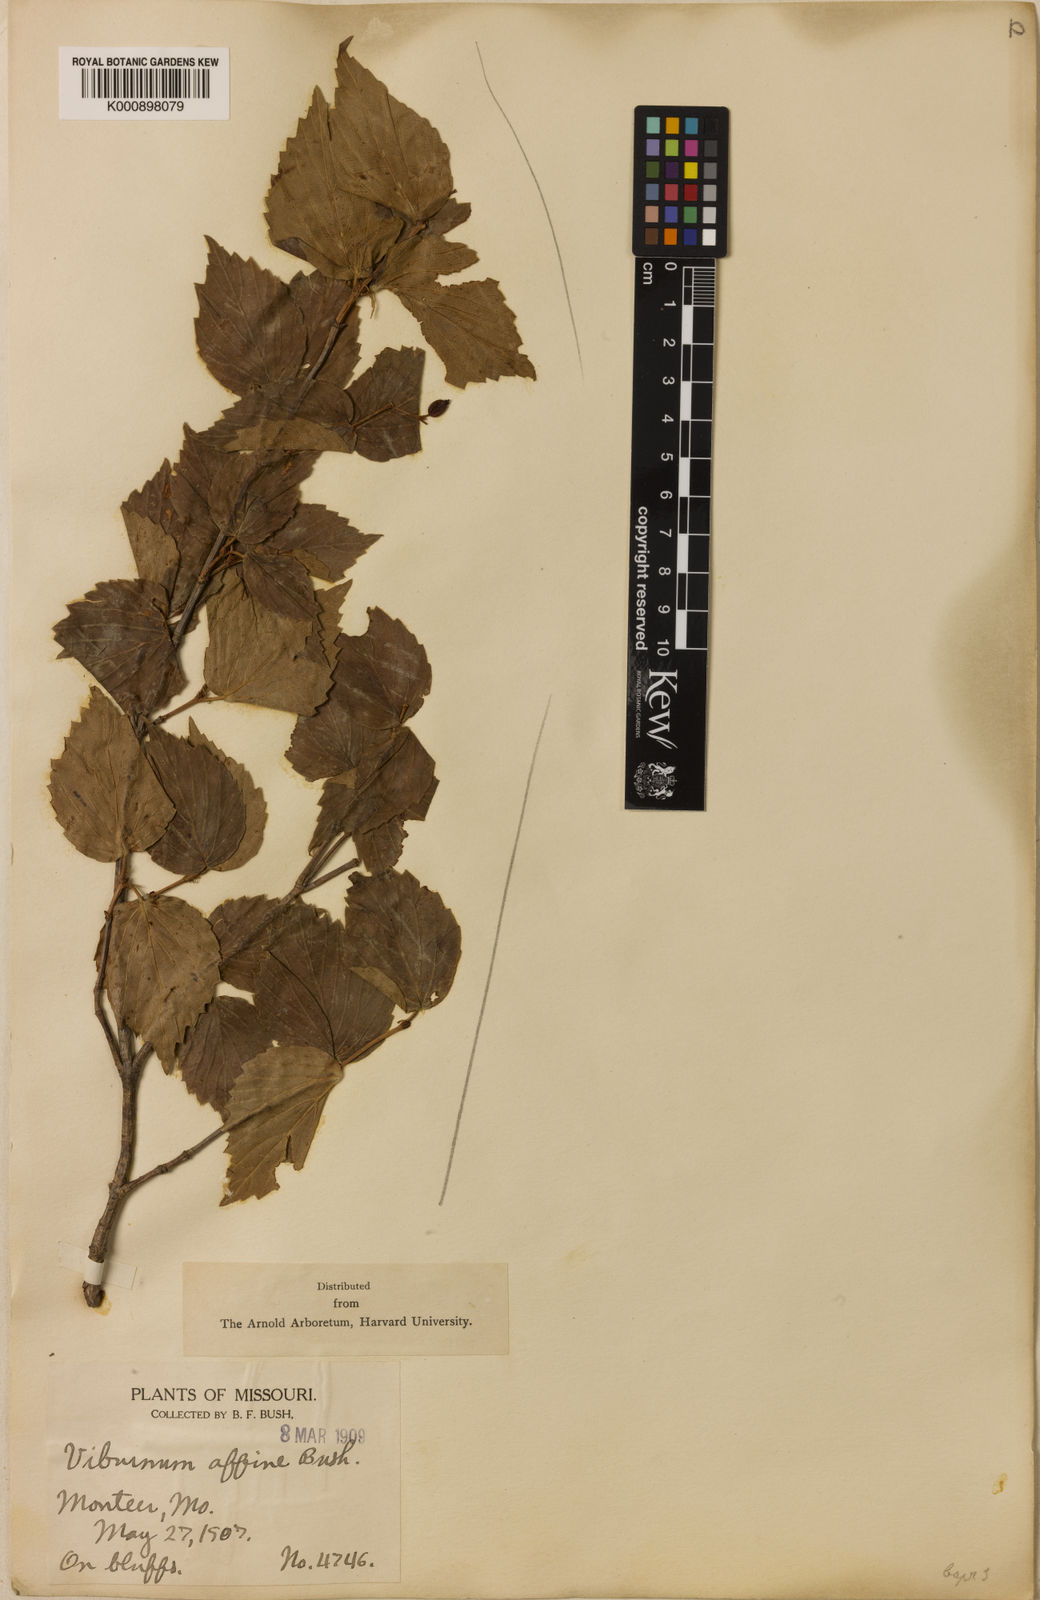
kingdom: Plantae
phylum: Tracheophyta
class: Magnoliopsida
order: Dipsacales
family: Viburnaceae
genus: Viburnum
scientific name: Viburnum
